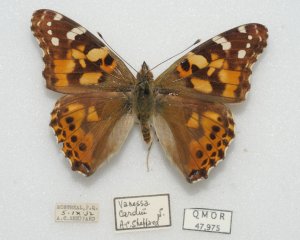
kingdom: Animalia
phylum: Arthropoda
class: Insecta
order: Lepidoptera
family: Nymphalidae
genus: Vanessa
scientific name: Vanessa cardui
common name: Painted Lady
